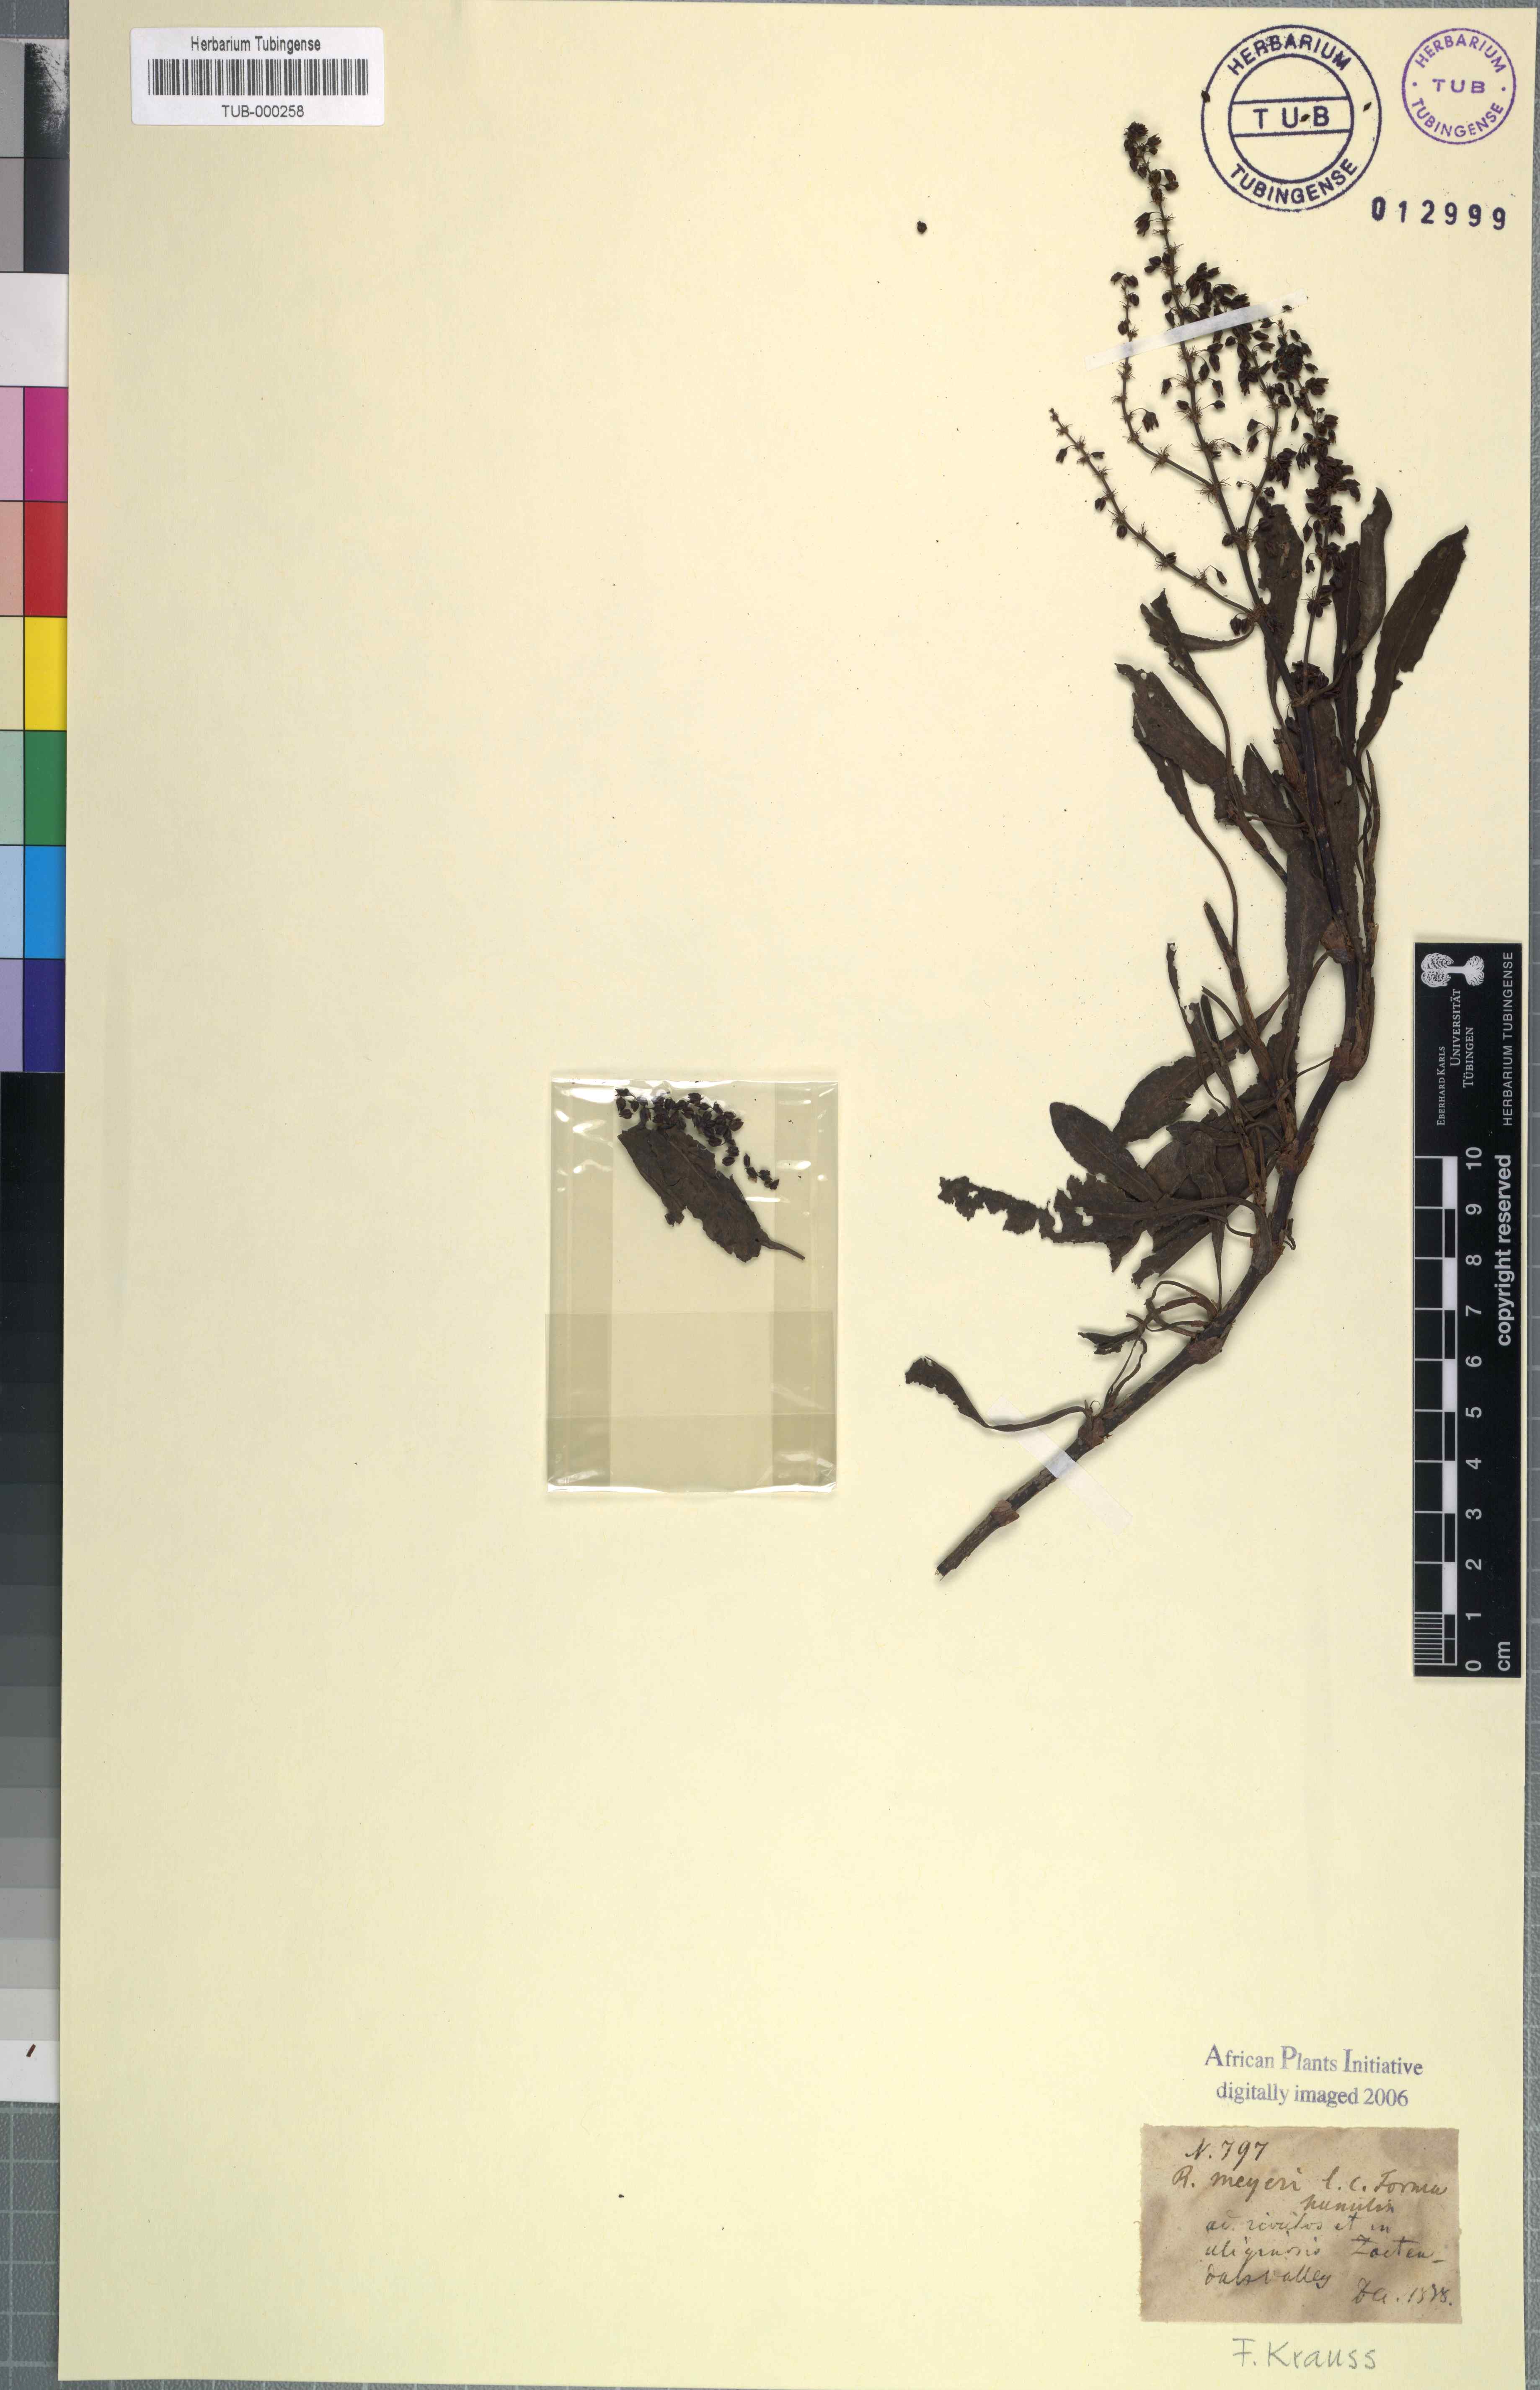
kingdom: Plantae
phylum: Tracheophyta
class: Magnoliopsida
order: Caryophyllales
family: Polygonaceae
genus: Rumex
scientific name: Rumex lanceolatus
